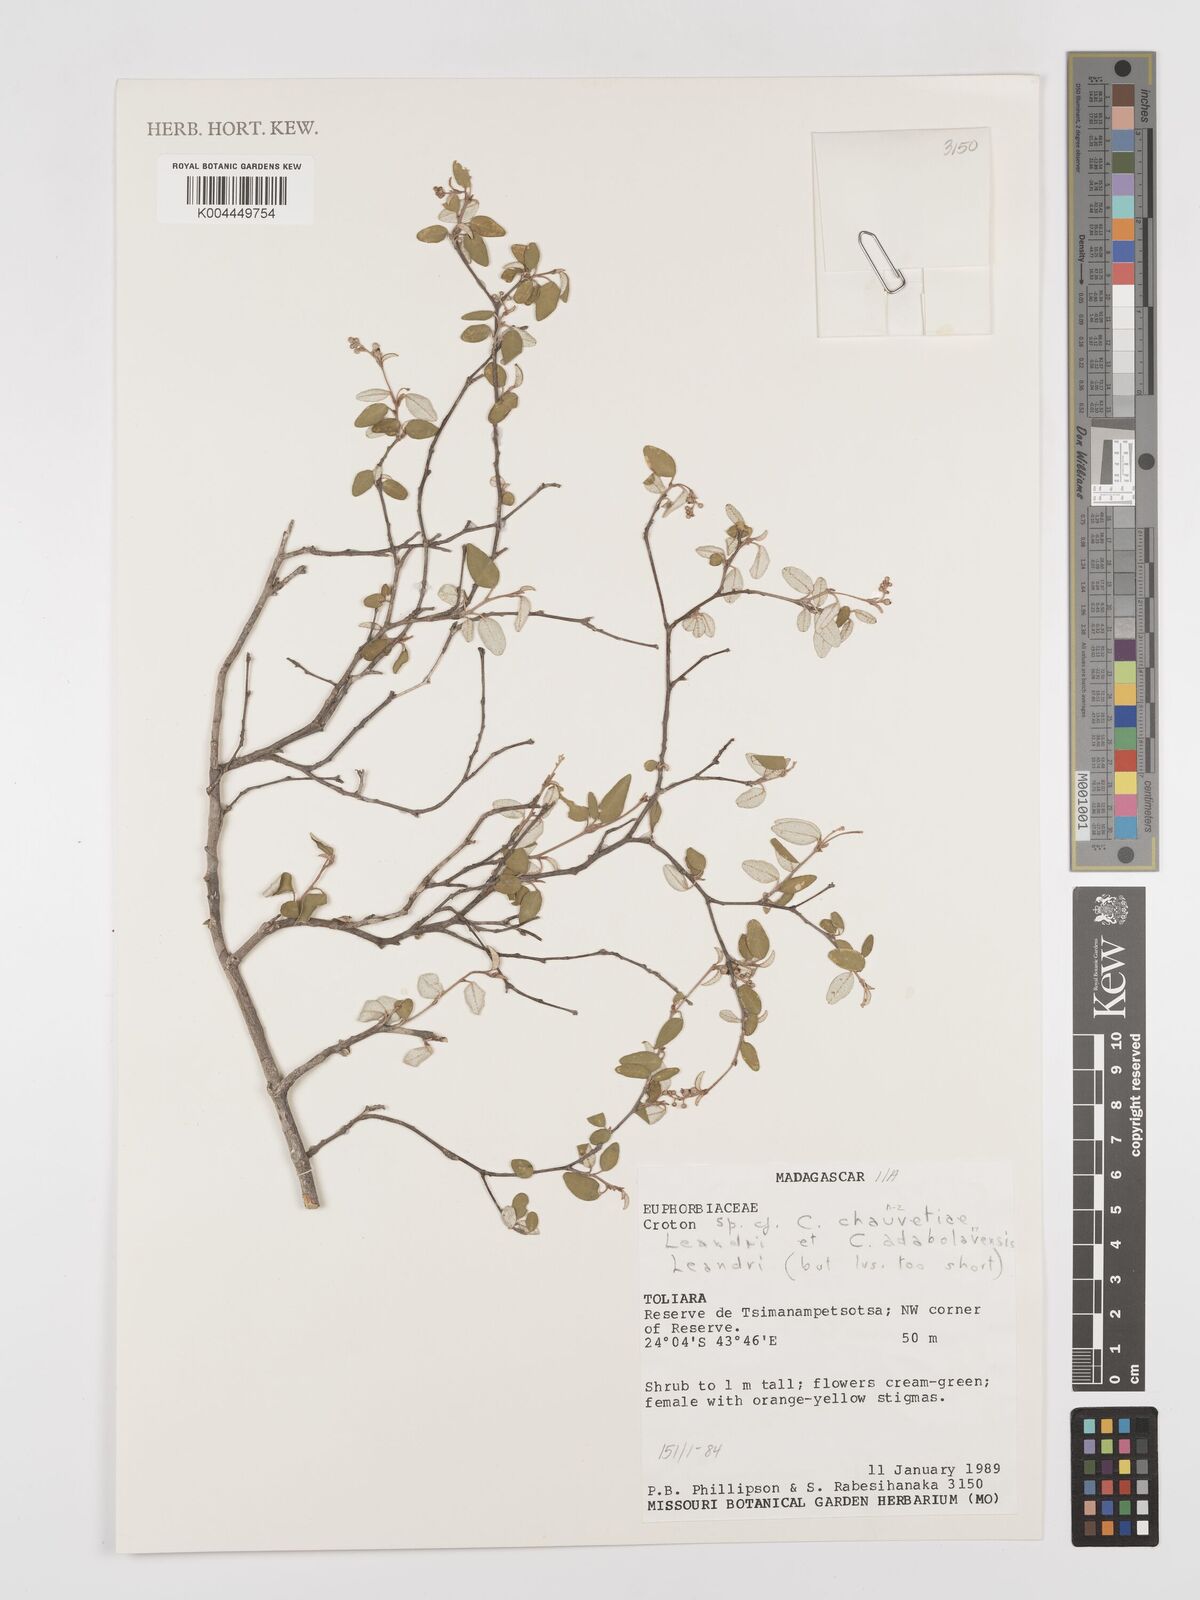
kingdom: Plantae
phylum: Tracheophyta
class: Magnoliopsida
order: Malpighiales
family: Euphorbiaceae
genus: Croton
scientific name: Croton chauvetiae
